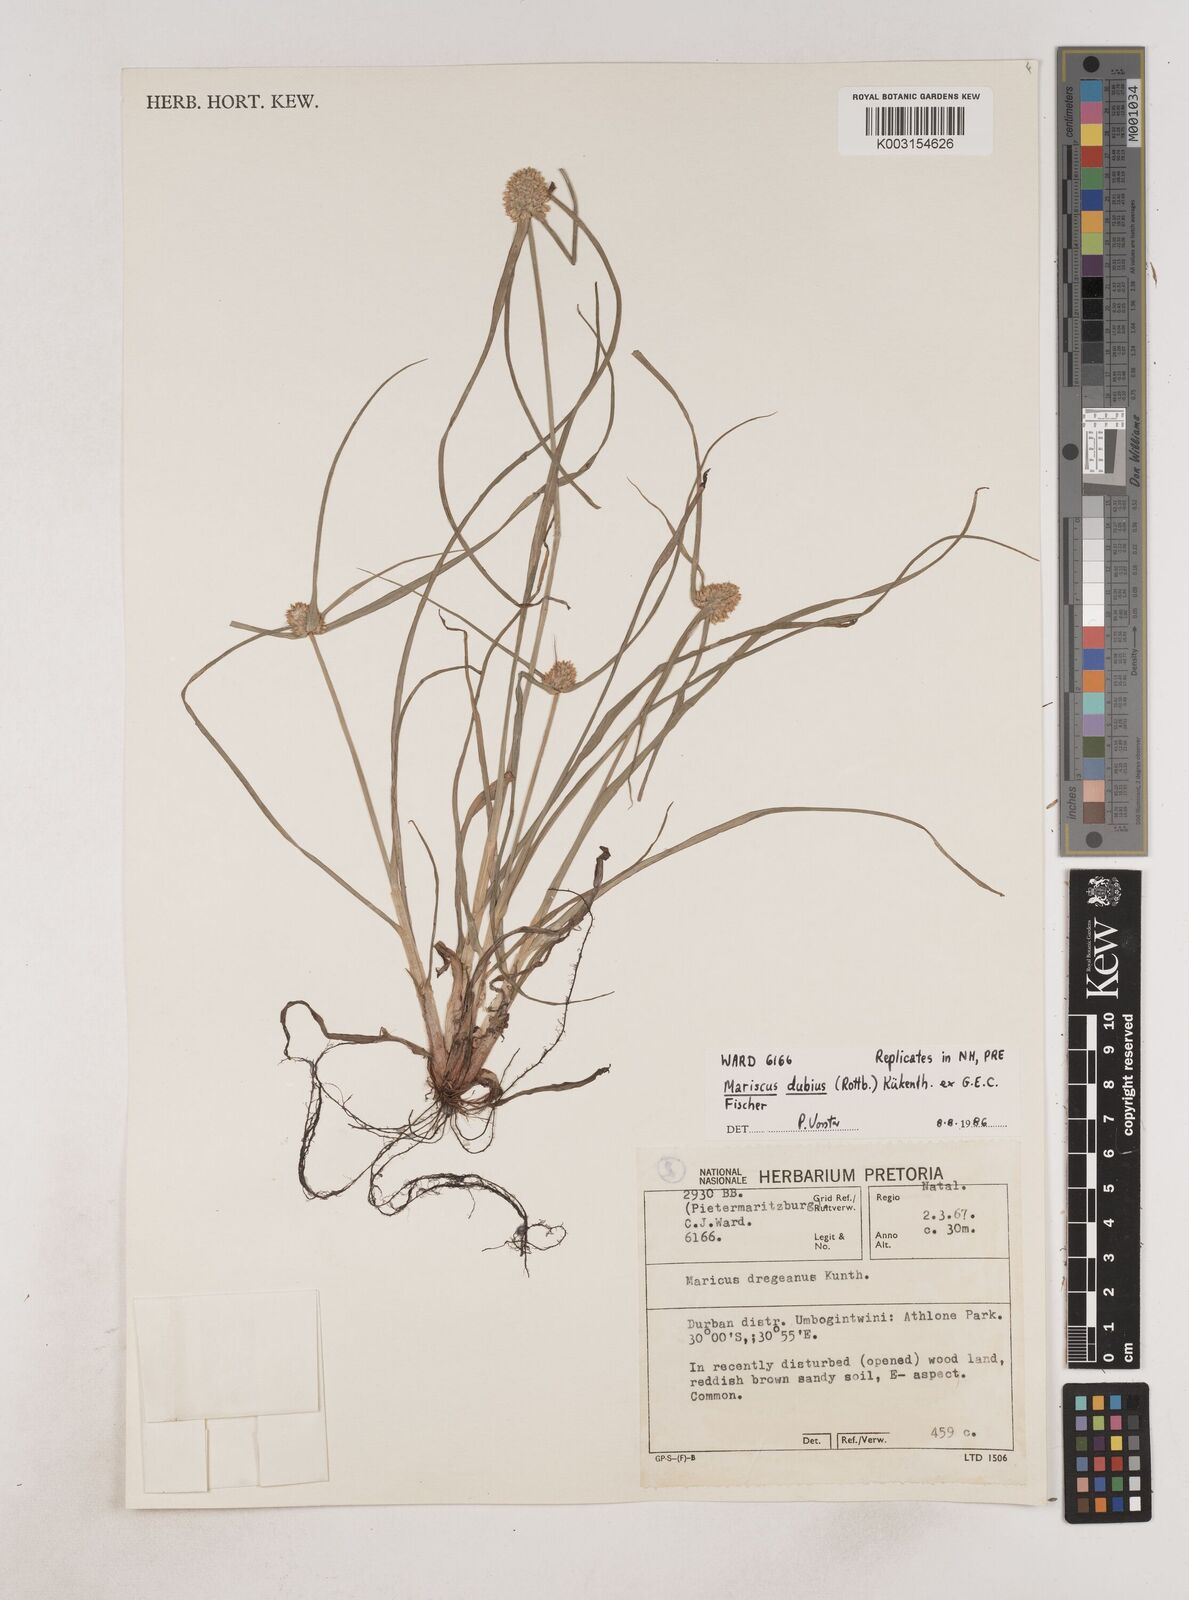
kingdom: Plantae
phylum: Tracheophyta
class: Liliopsida
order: Poales
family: Cyperaceae
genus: Cyperus
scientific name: Cyperus dubius
